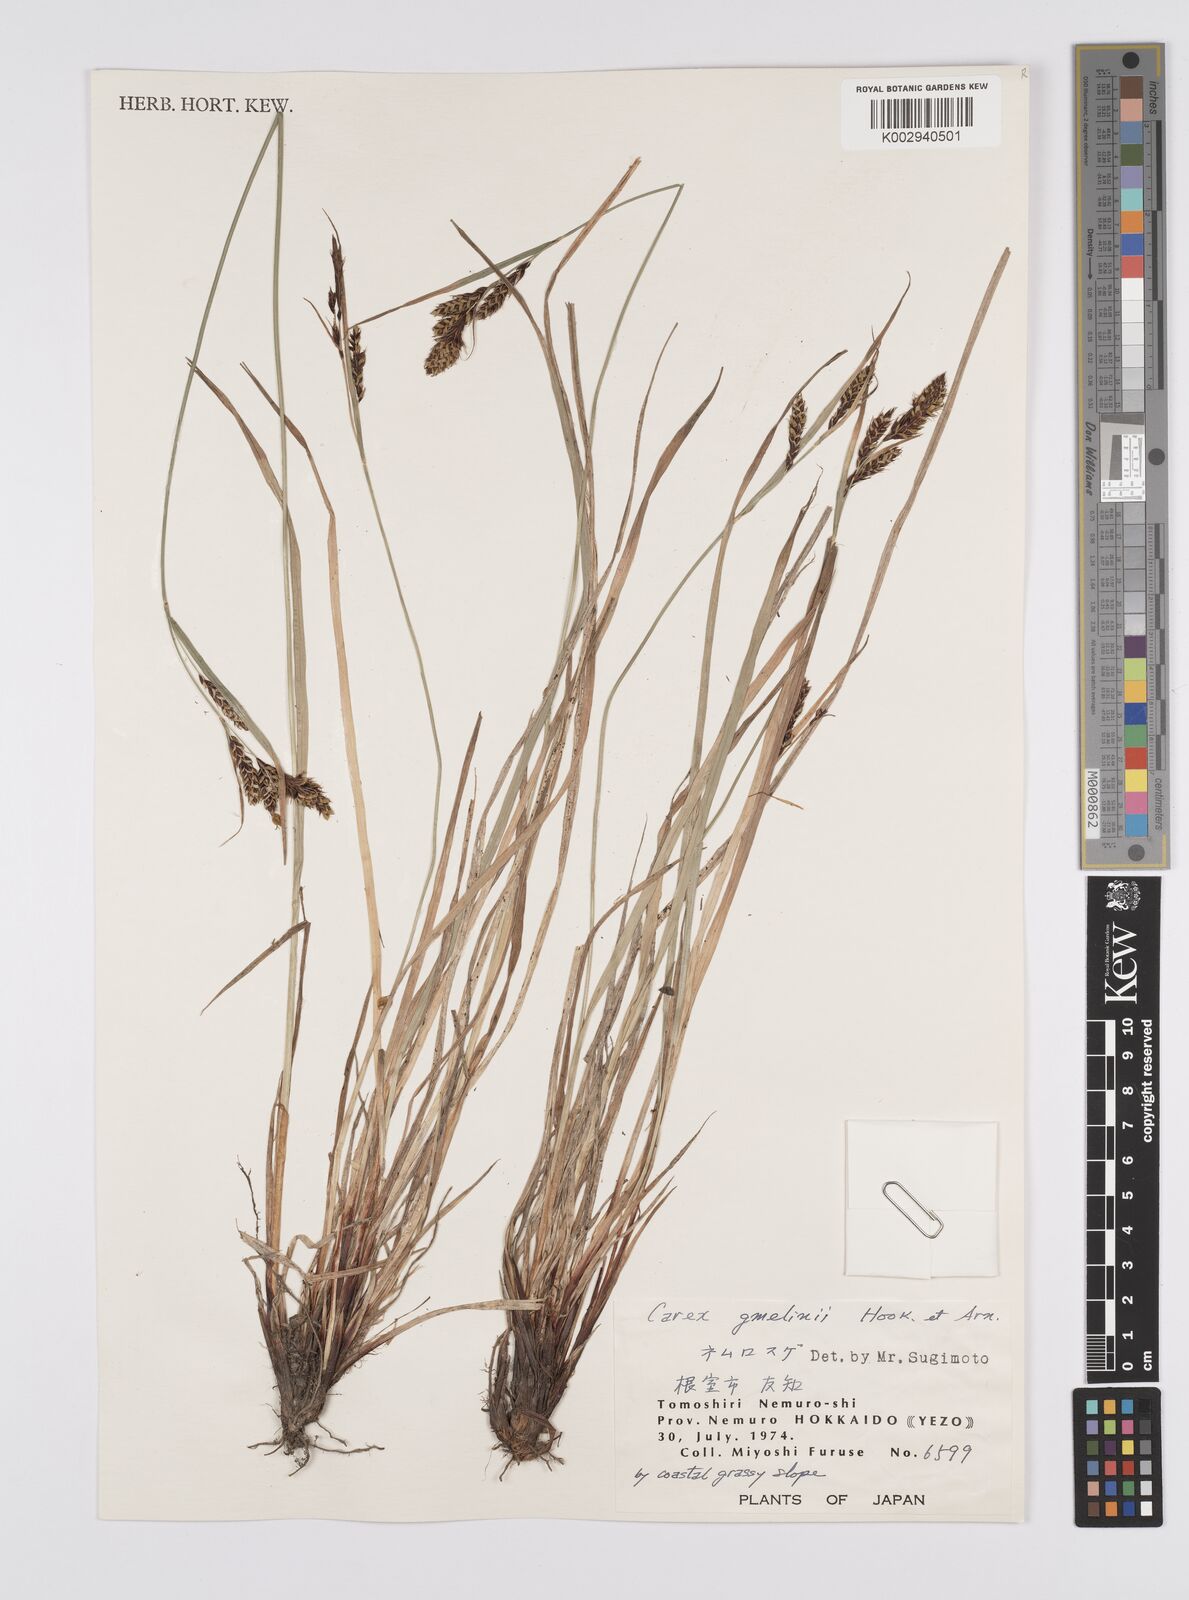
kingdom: Plantae
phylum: Tracheophyta
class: Liliopsida
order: Poales
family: Cyperaceae
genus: Carex
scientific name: Carex gmelinii
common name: Gmelin's sedge
